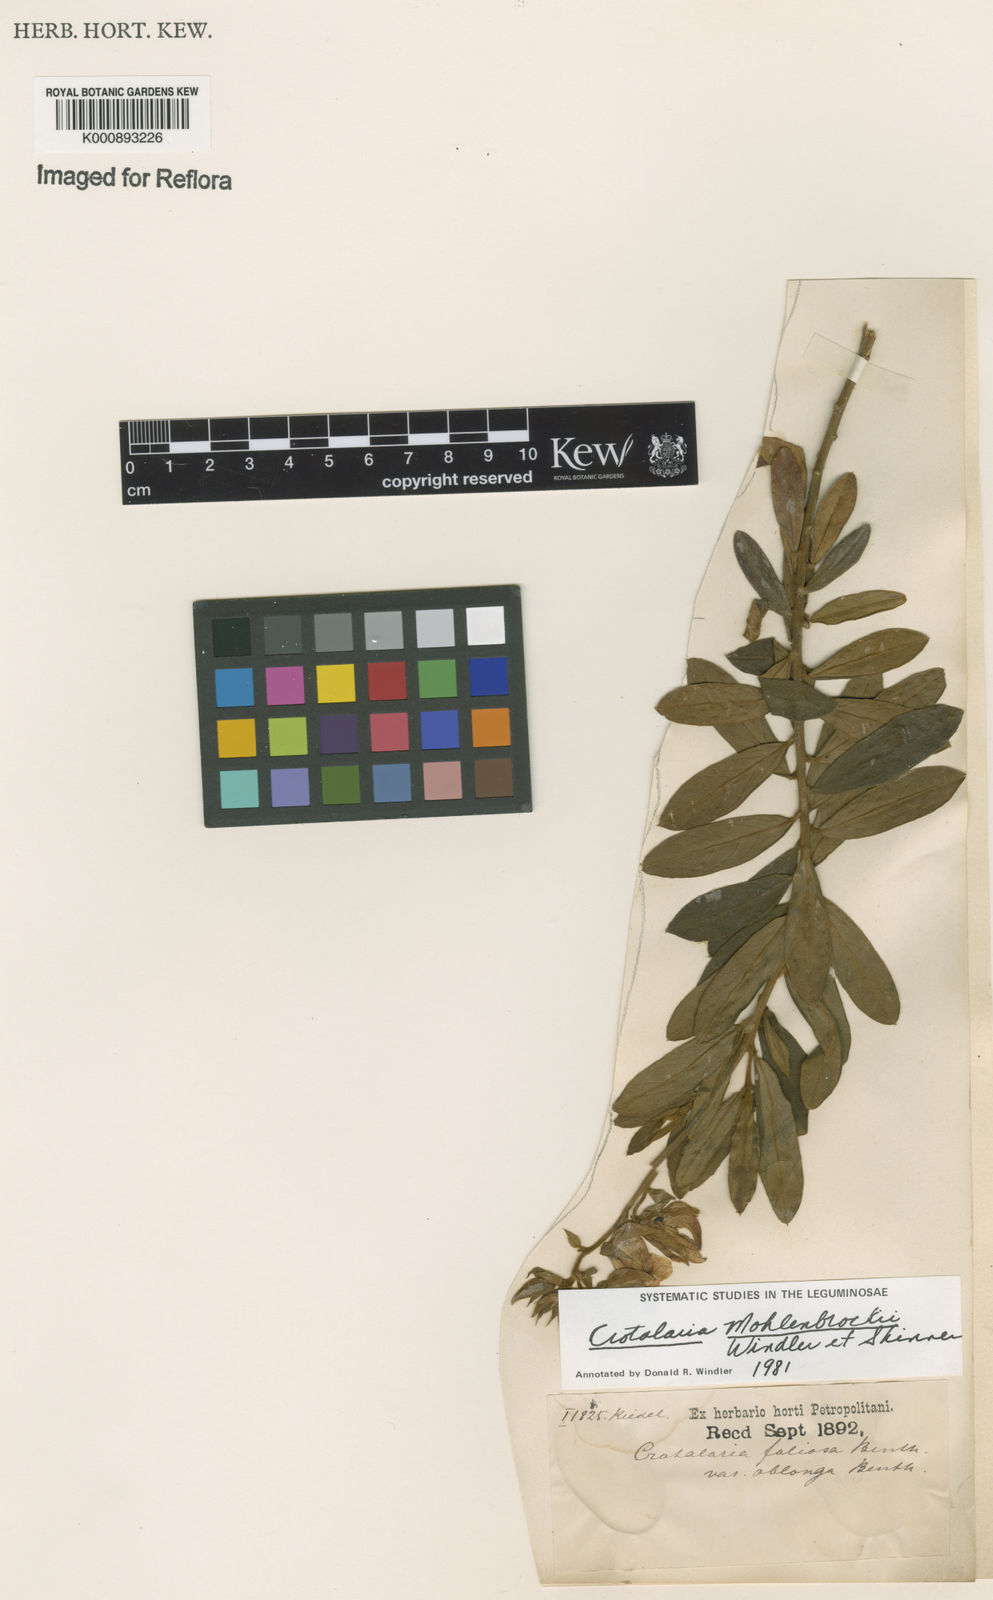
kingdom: Plantae
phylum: Tracheophyta
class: Magnoliopsida
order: Fabales
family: Fabaceae
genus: Crotalaria
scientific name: Crotalaria martiana
